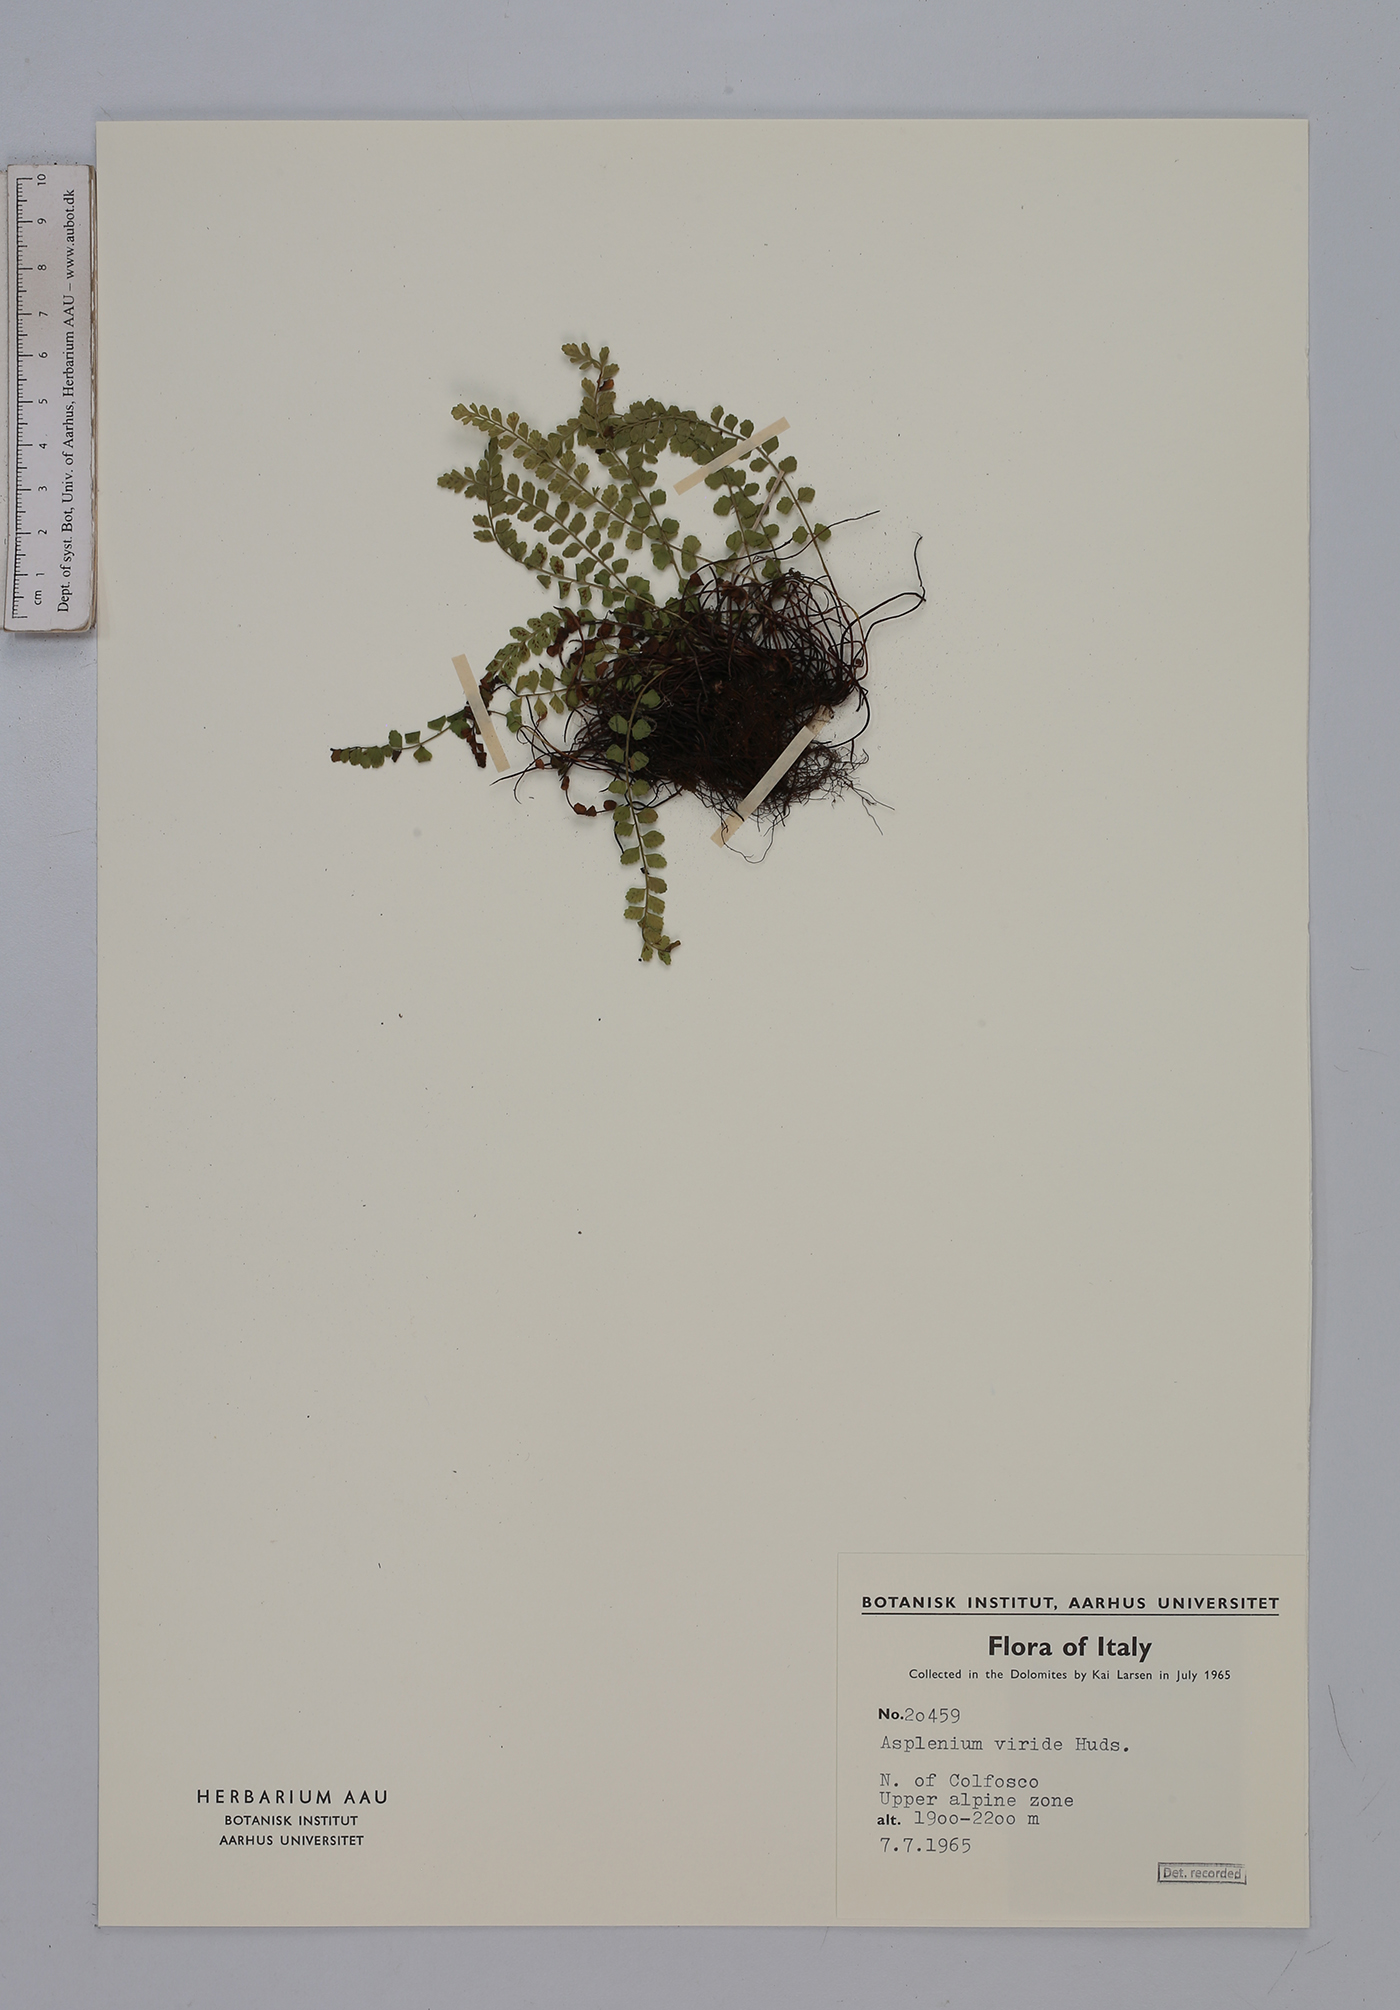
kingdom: Plantae
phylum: Tracheophyta
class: Polypodiopsida
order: Polypodiales
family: Aspleniaceae
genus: Asplenium
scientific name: Asplenium viride
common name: Green spleenwort
